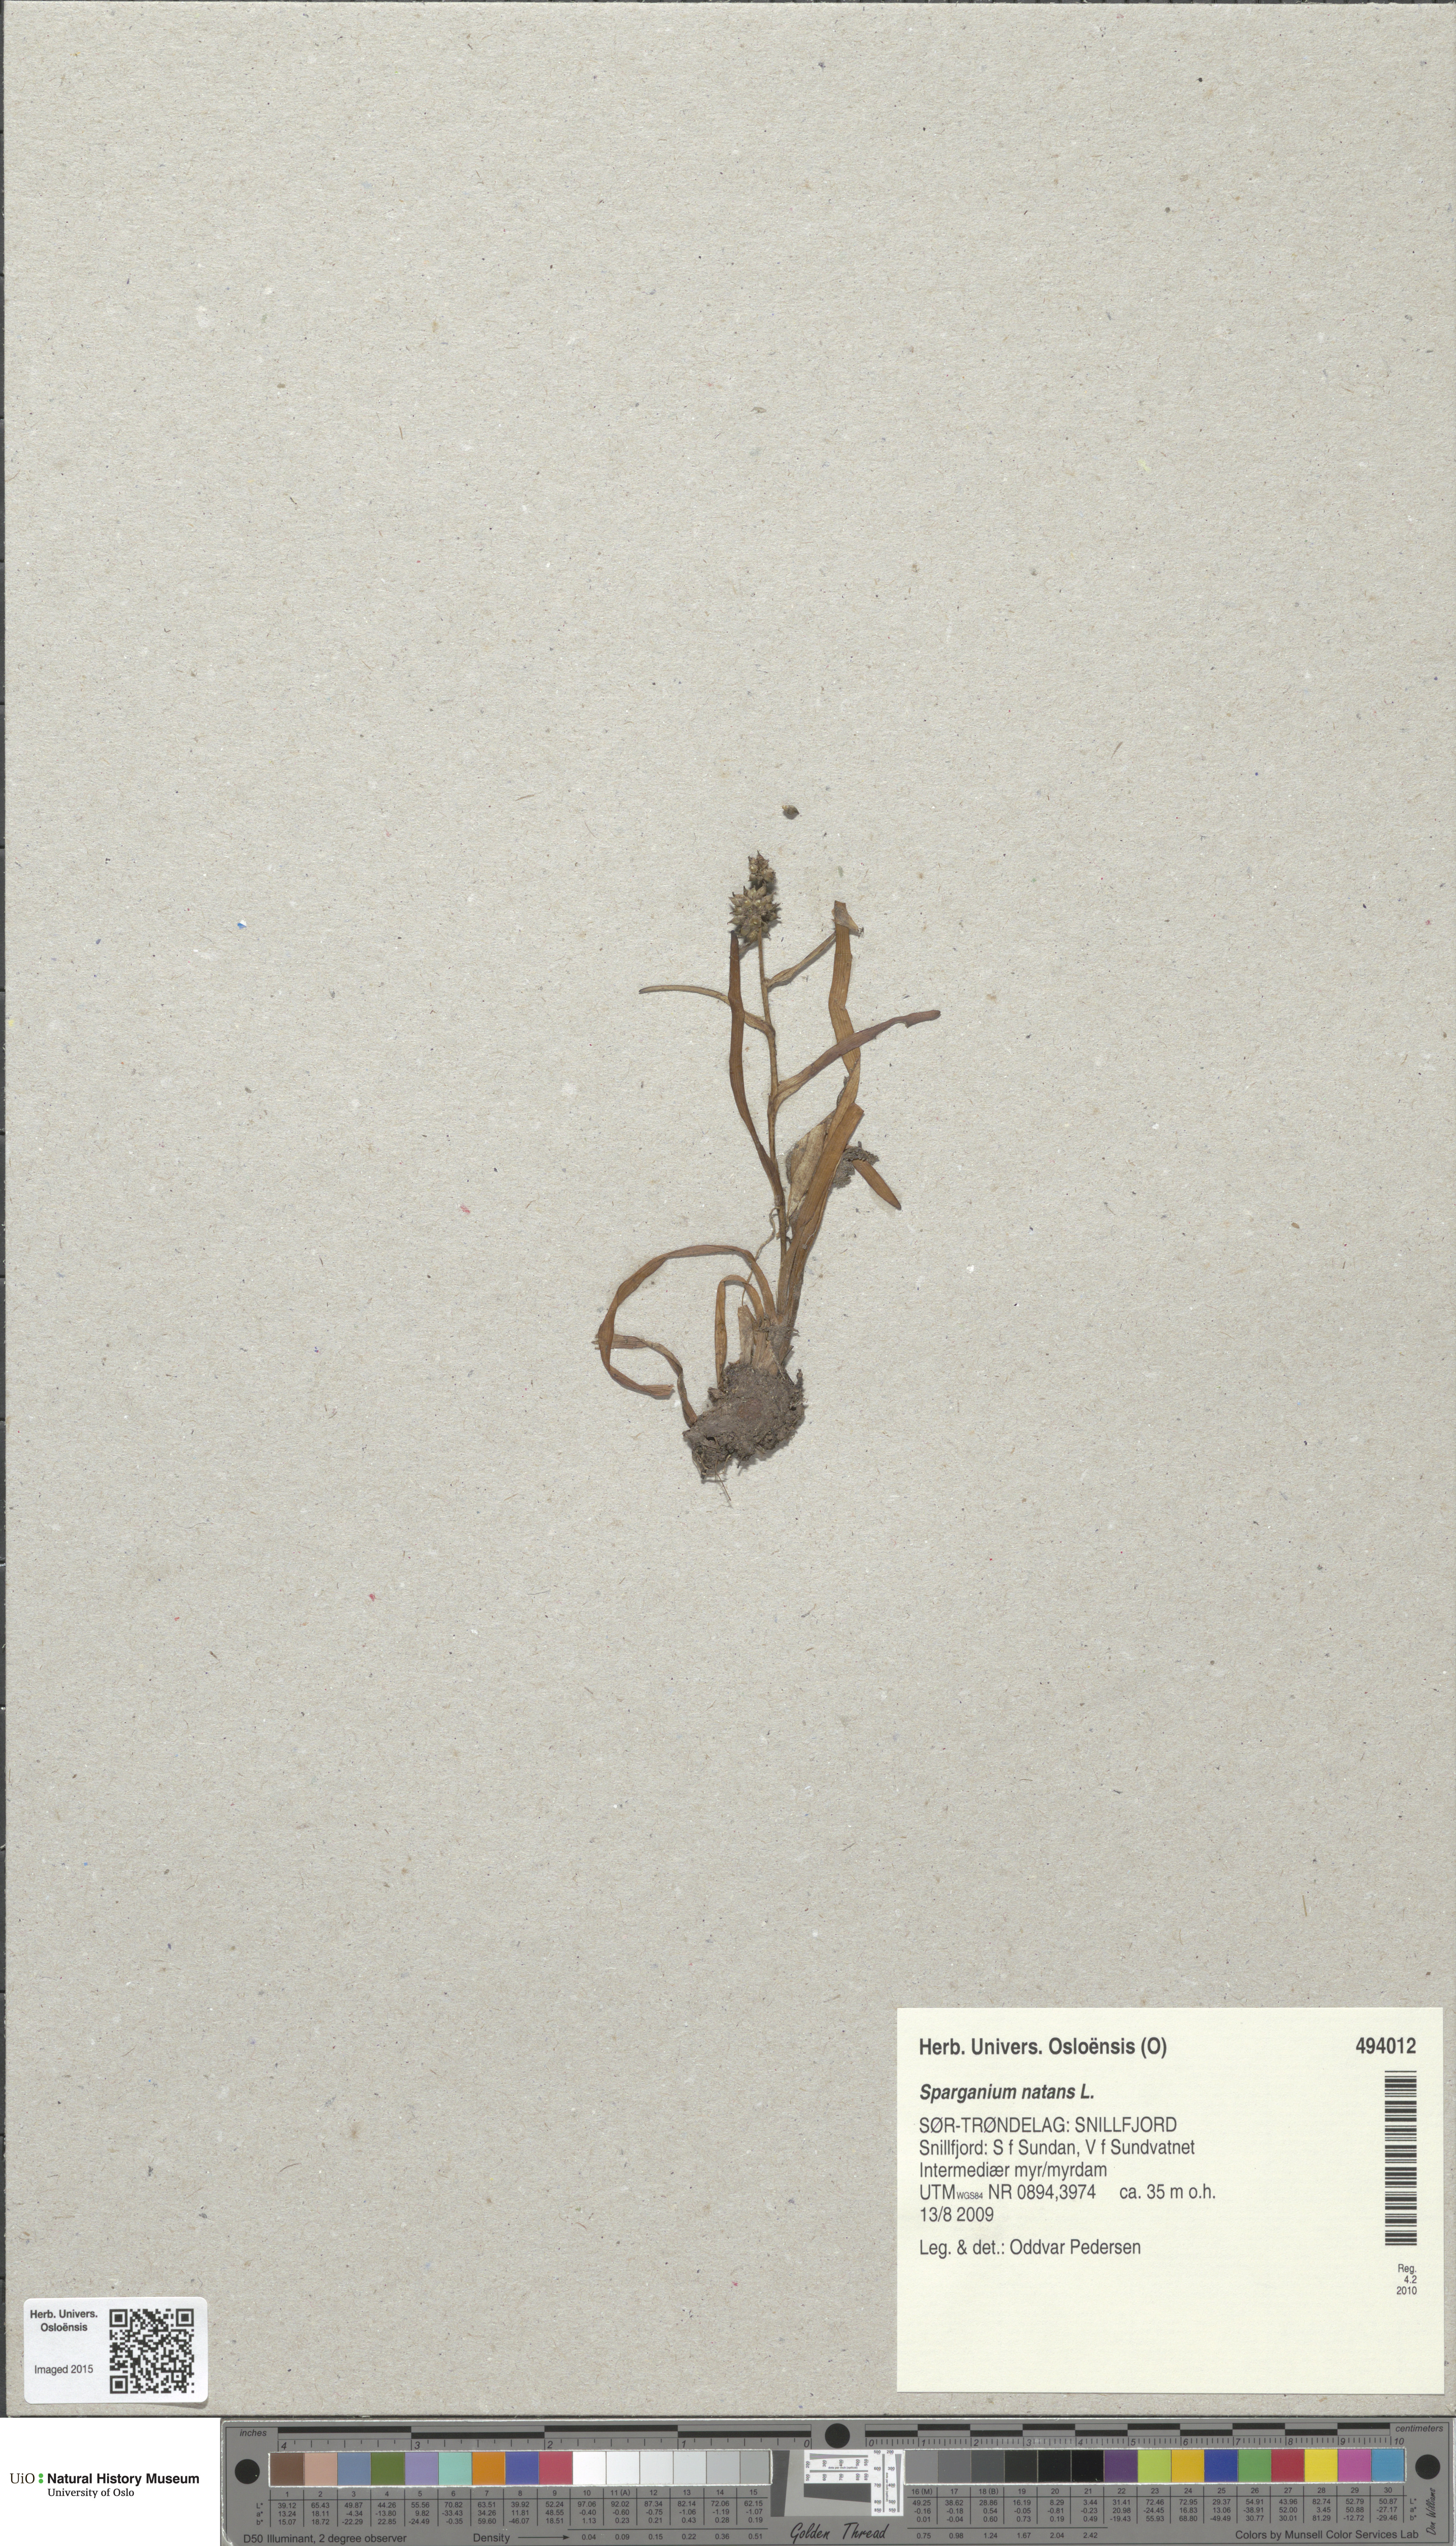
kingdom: Plantae
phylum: Tracheophyta
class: Liliopsida
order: Poales
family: Typhaceae
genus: Sparganium
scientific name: Sparganium natans
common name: Least bur-reed
